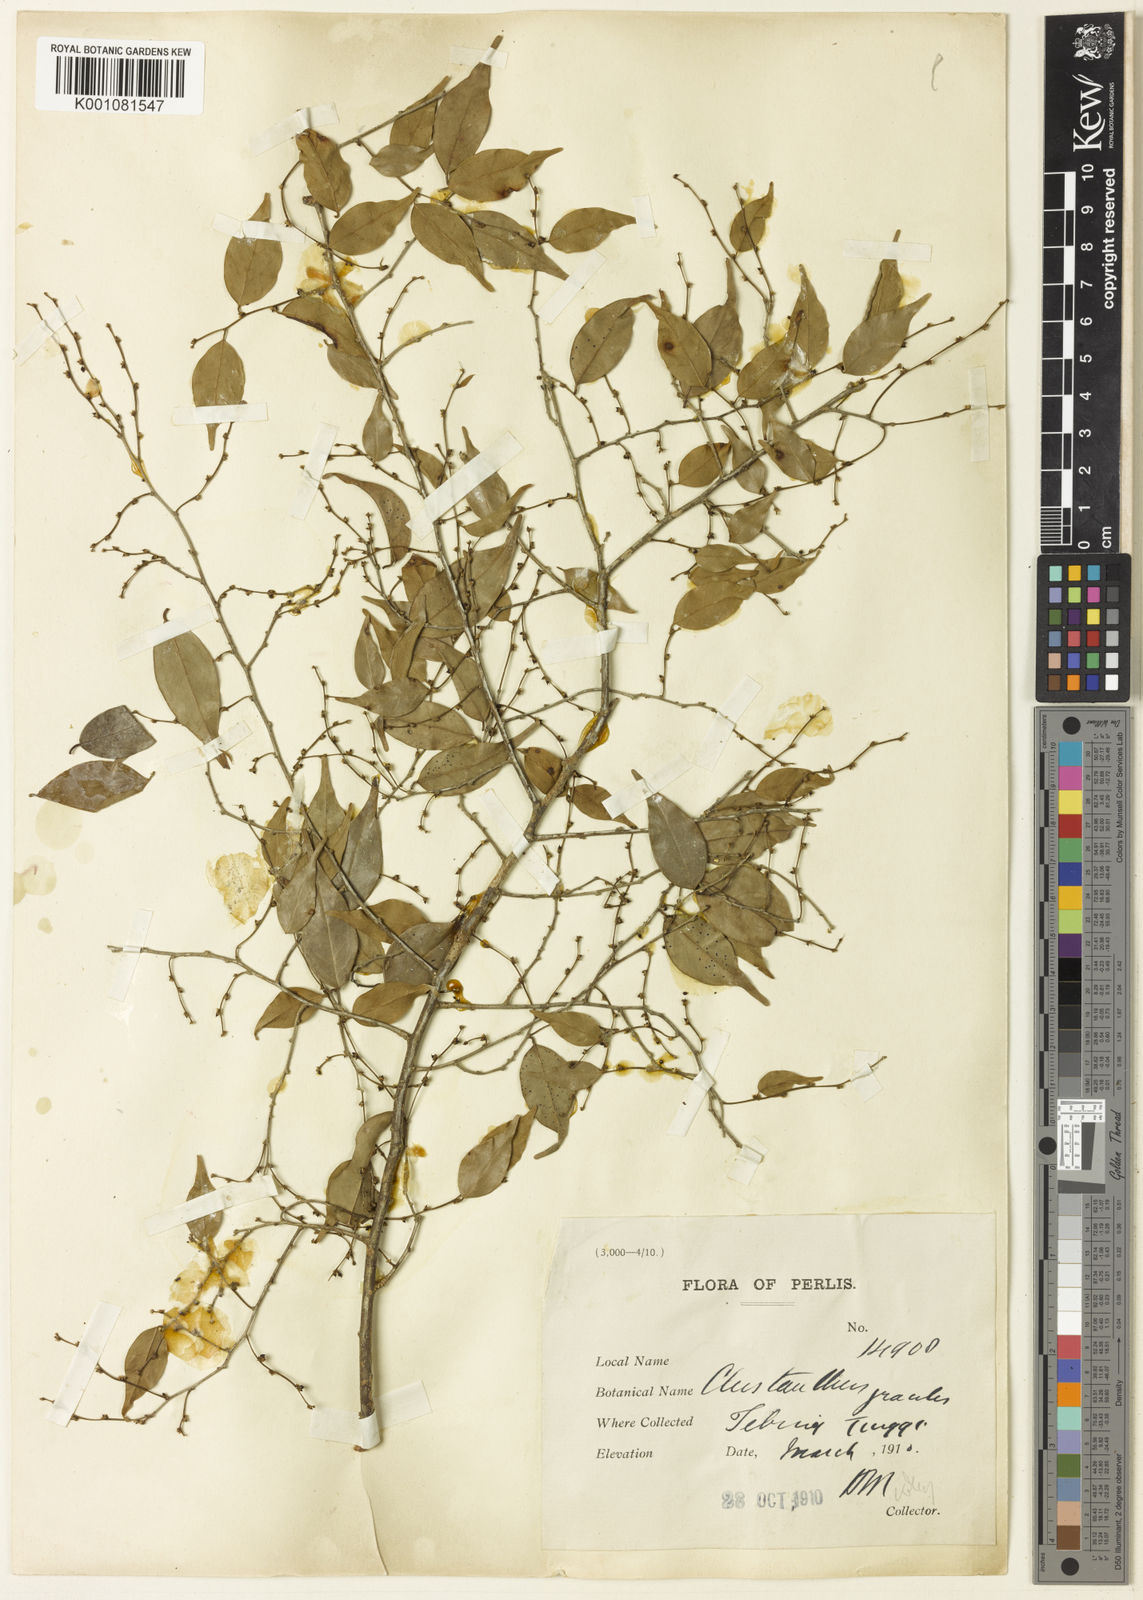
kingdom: Plantae
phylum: Tracheophyta
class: Magnoliopsida
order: Malpighiales
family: Phyllanthaceae
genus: Cleistanthus
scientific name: Cleistanthus gracilis
